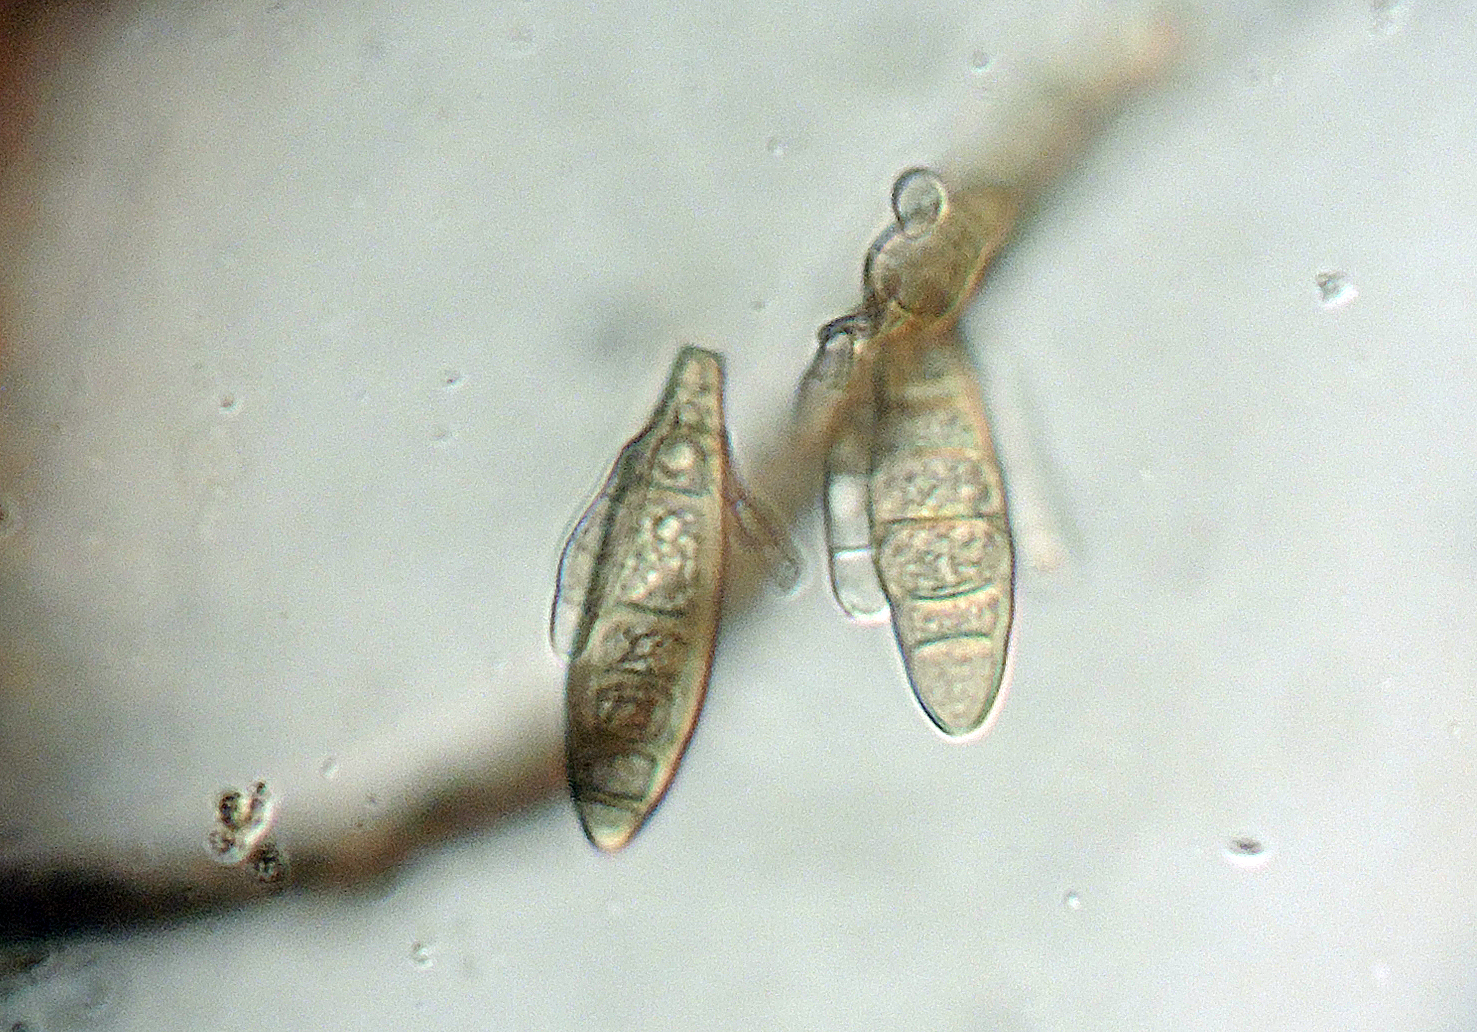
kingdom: Fungi
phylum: Ascomycota
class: Leotiomycetes
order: Helotiales
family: Helotiaceae
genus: Strossmayeria
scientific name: Strossmayeria basitricha
